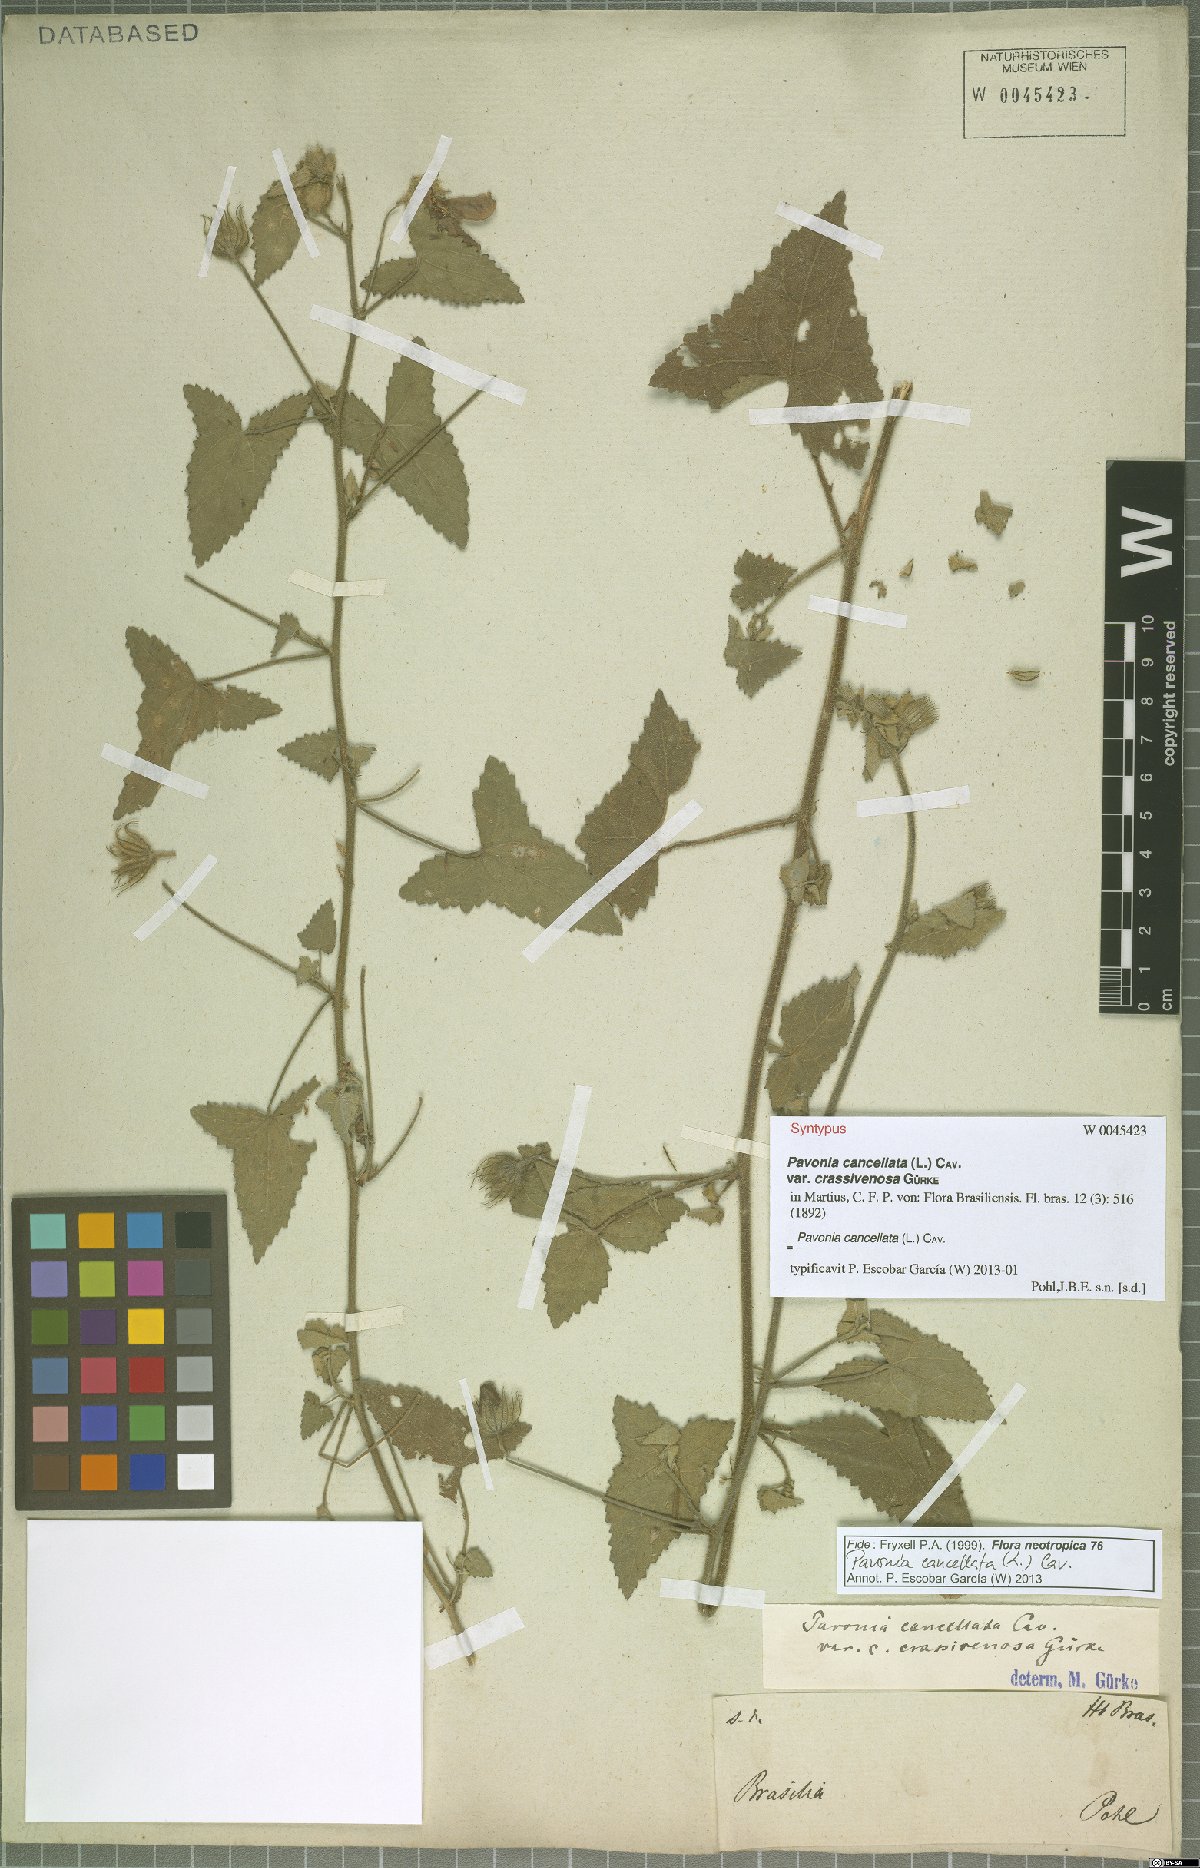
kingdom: Plantae
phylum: Tracheophyta
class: Magnoliopsida
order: Malvales
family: Malvaceae
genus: Pavonia
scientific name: Pavonia cancellata
